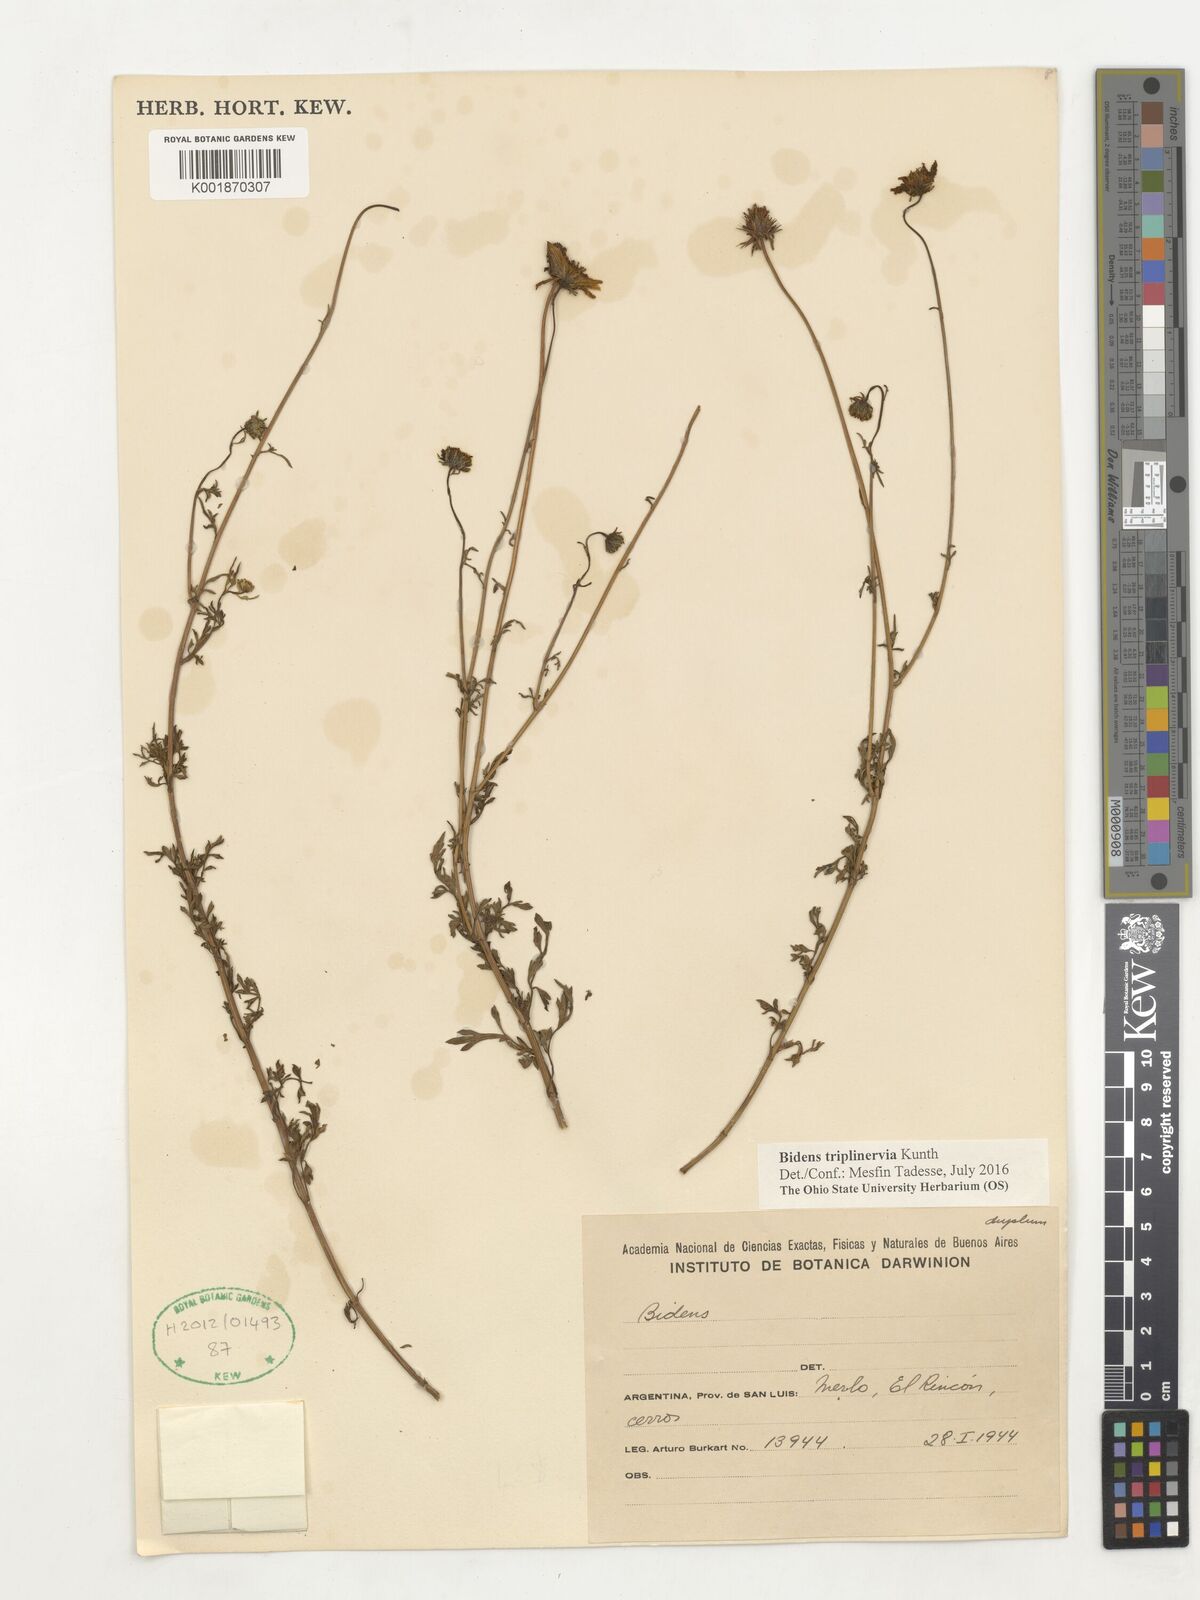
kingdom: Plantae
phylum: Tracheophyta
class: Magnoliopsida
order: Asterales
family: Asteraceae
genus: Bidens
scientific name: Bidens triplinervia
